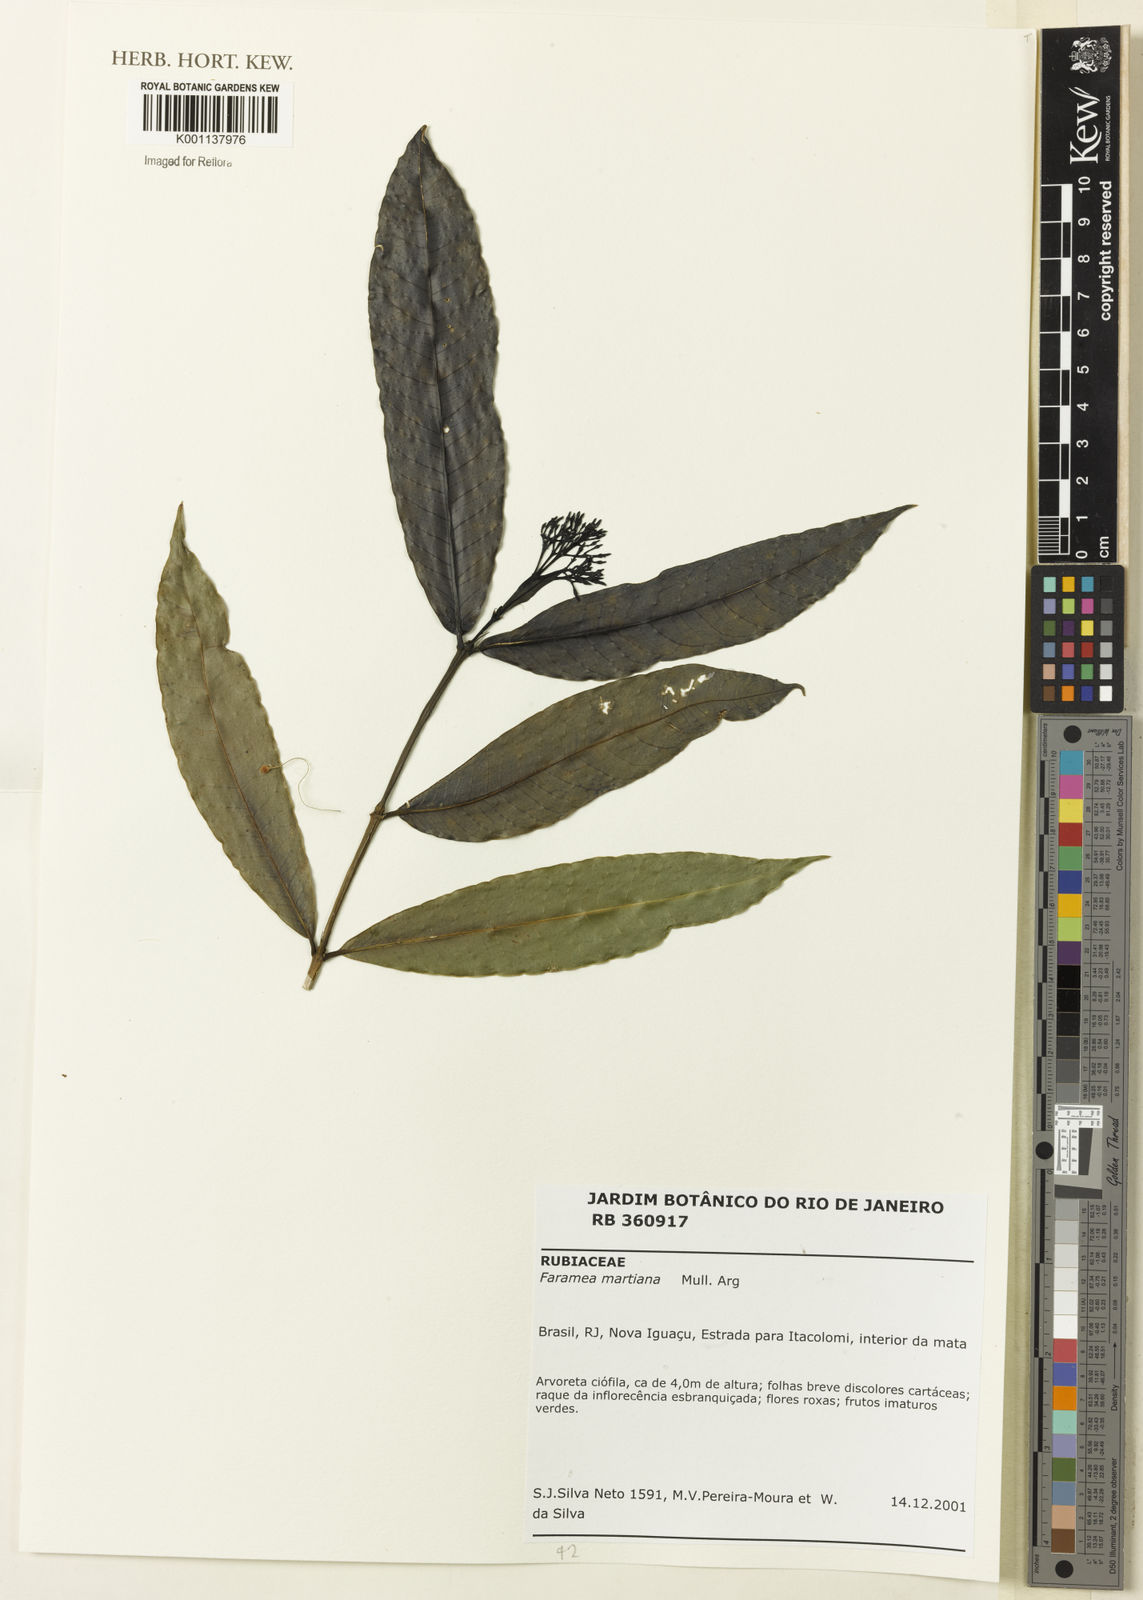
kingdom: Plantae
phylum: Tracheophyta
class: Magnoliopsida
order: Gentianales
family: Rubiaceae
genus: Faramea
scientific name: Faramea
